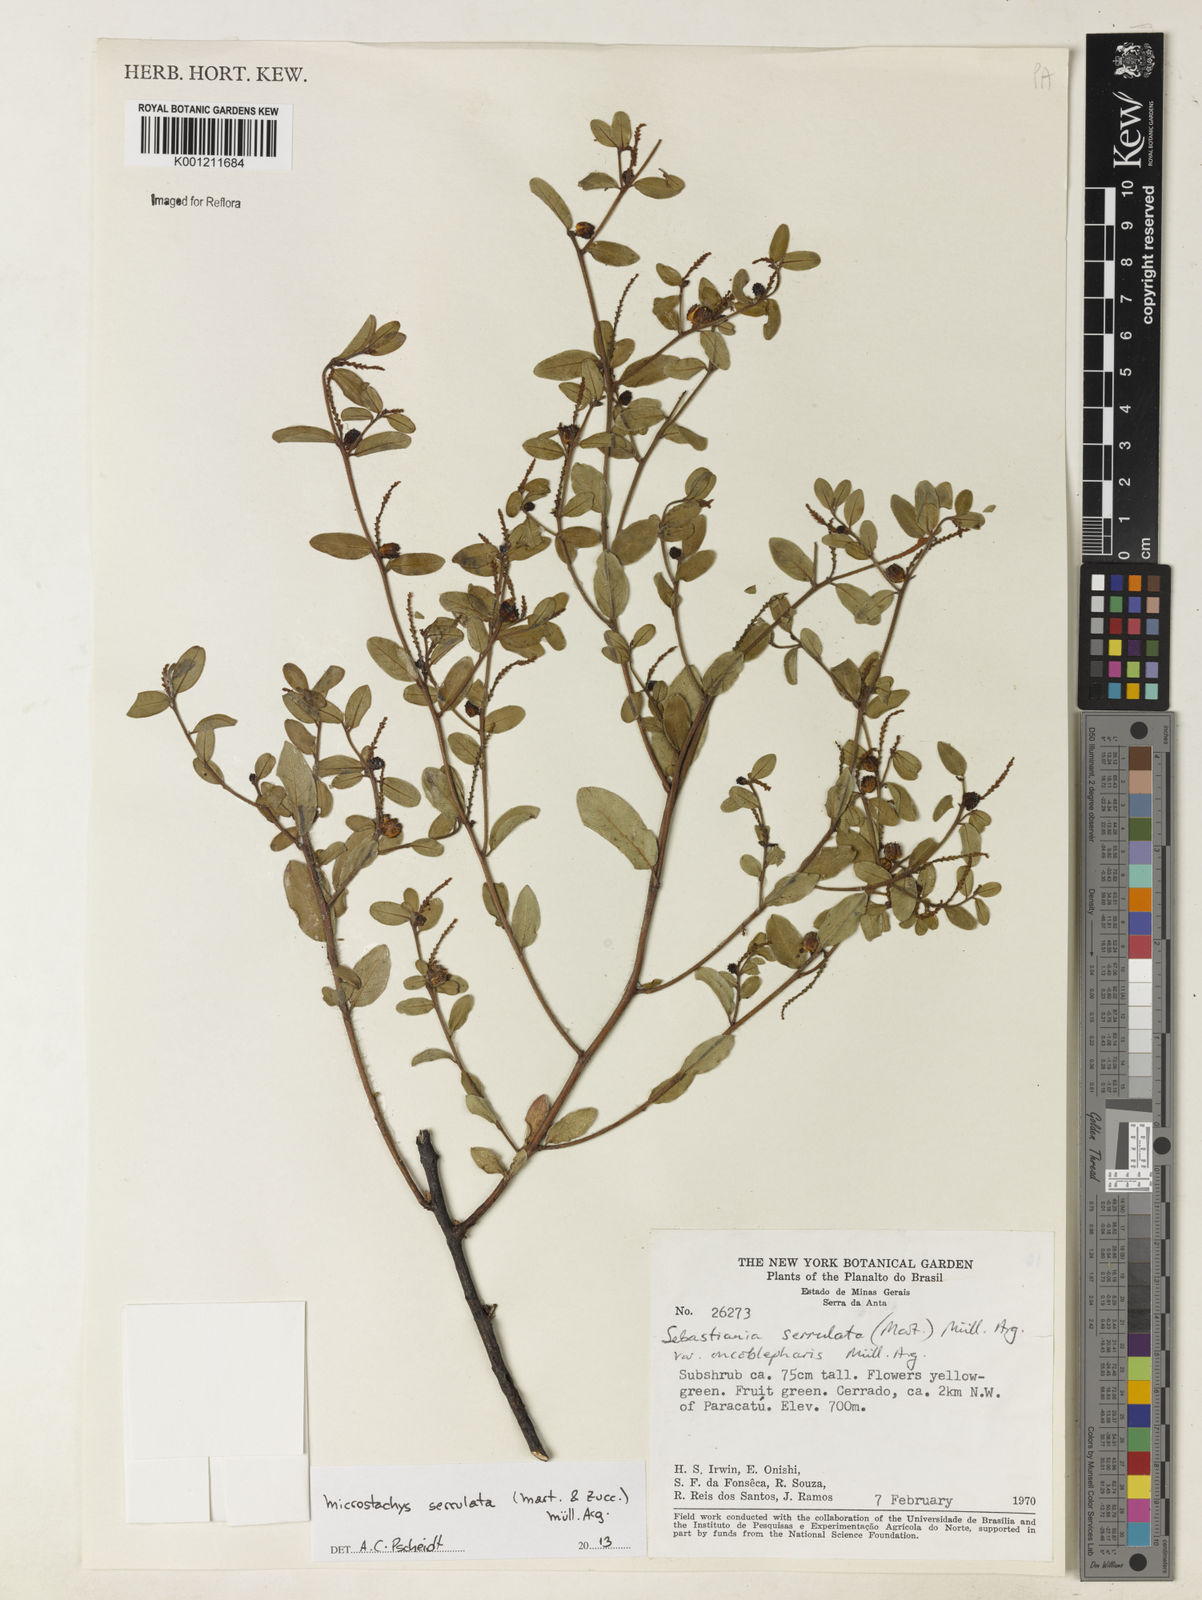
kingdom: Plantae
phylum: Tracheophyta
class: Magnoliopsida
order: Malpighiales
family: Euphorbiaceae
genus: Microstachys
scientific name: Microstachys
